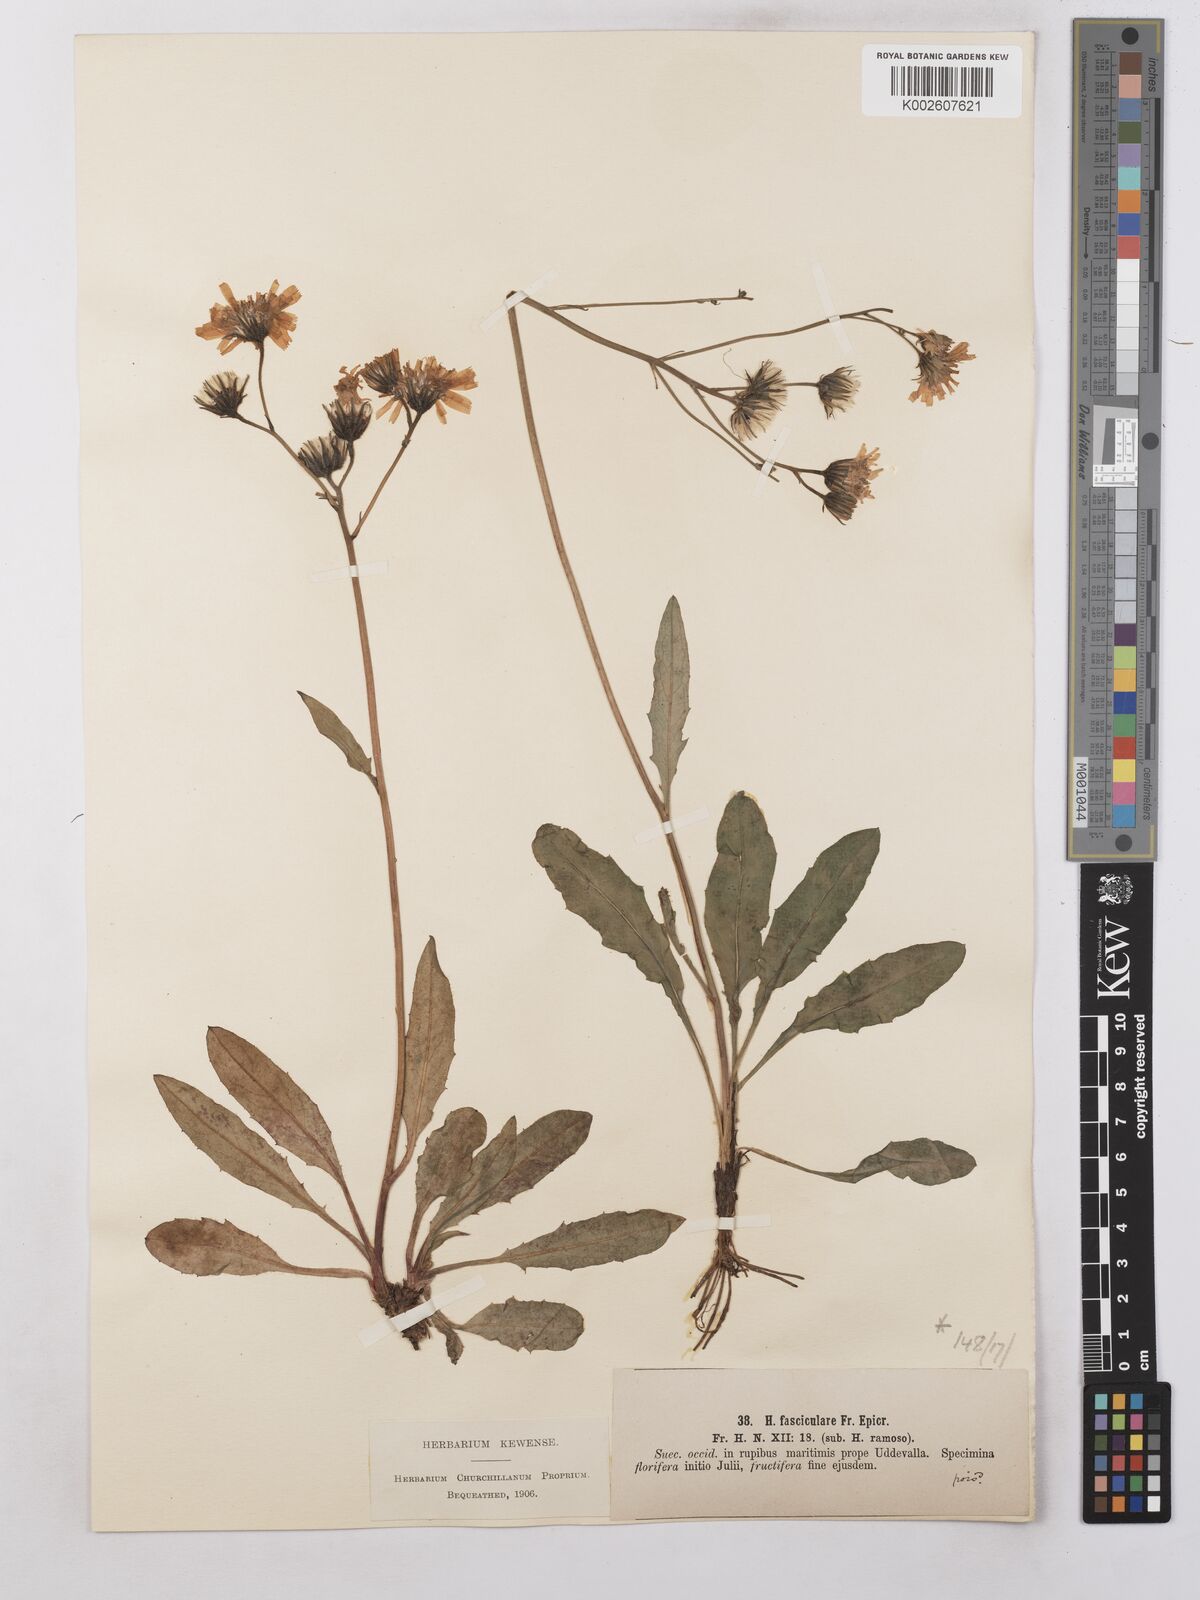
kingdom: Plantae
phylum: Tracheophyta
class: Magnoliopsida
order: Asterales
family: Asteraceae
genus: Hieracium
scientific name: Hieracium subramosum
